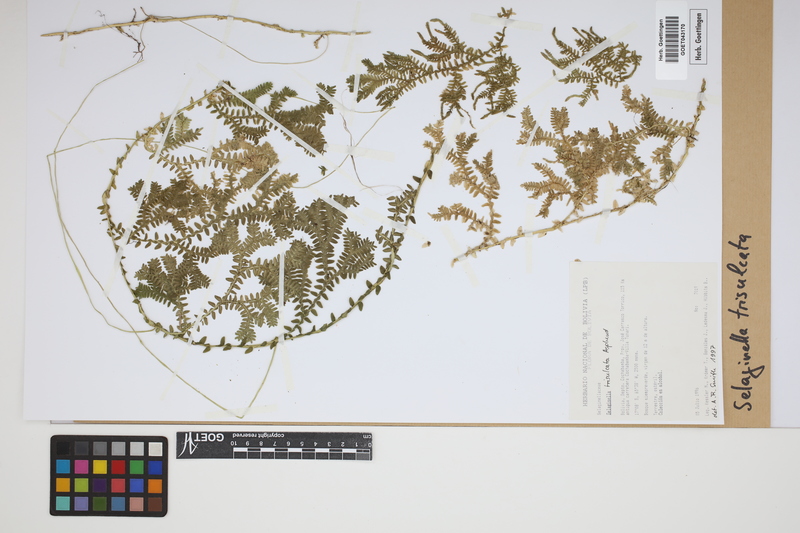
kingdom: Plantae
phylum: Tracheophyta
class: Lycopodiopsida
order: Selaginellales
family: Selaginellaceae
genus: Selaginella
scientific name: Selaginella trisulcata
